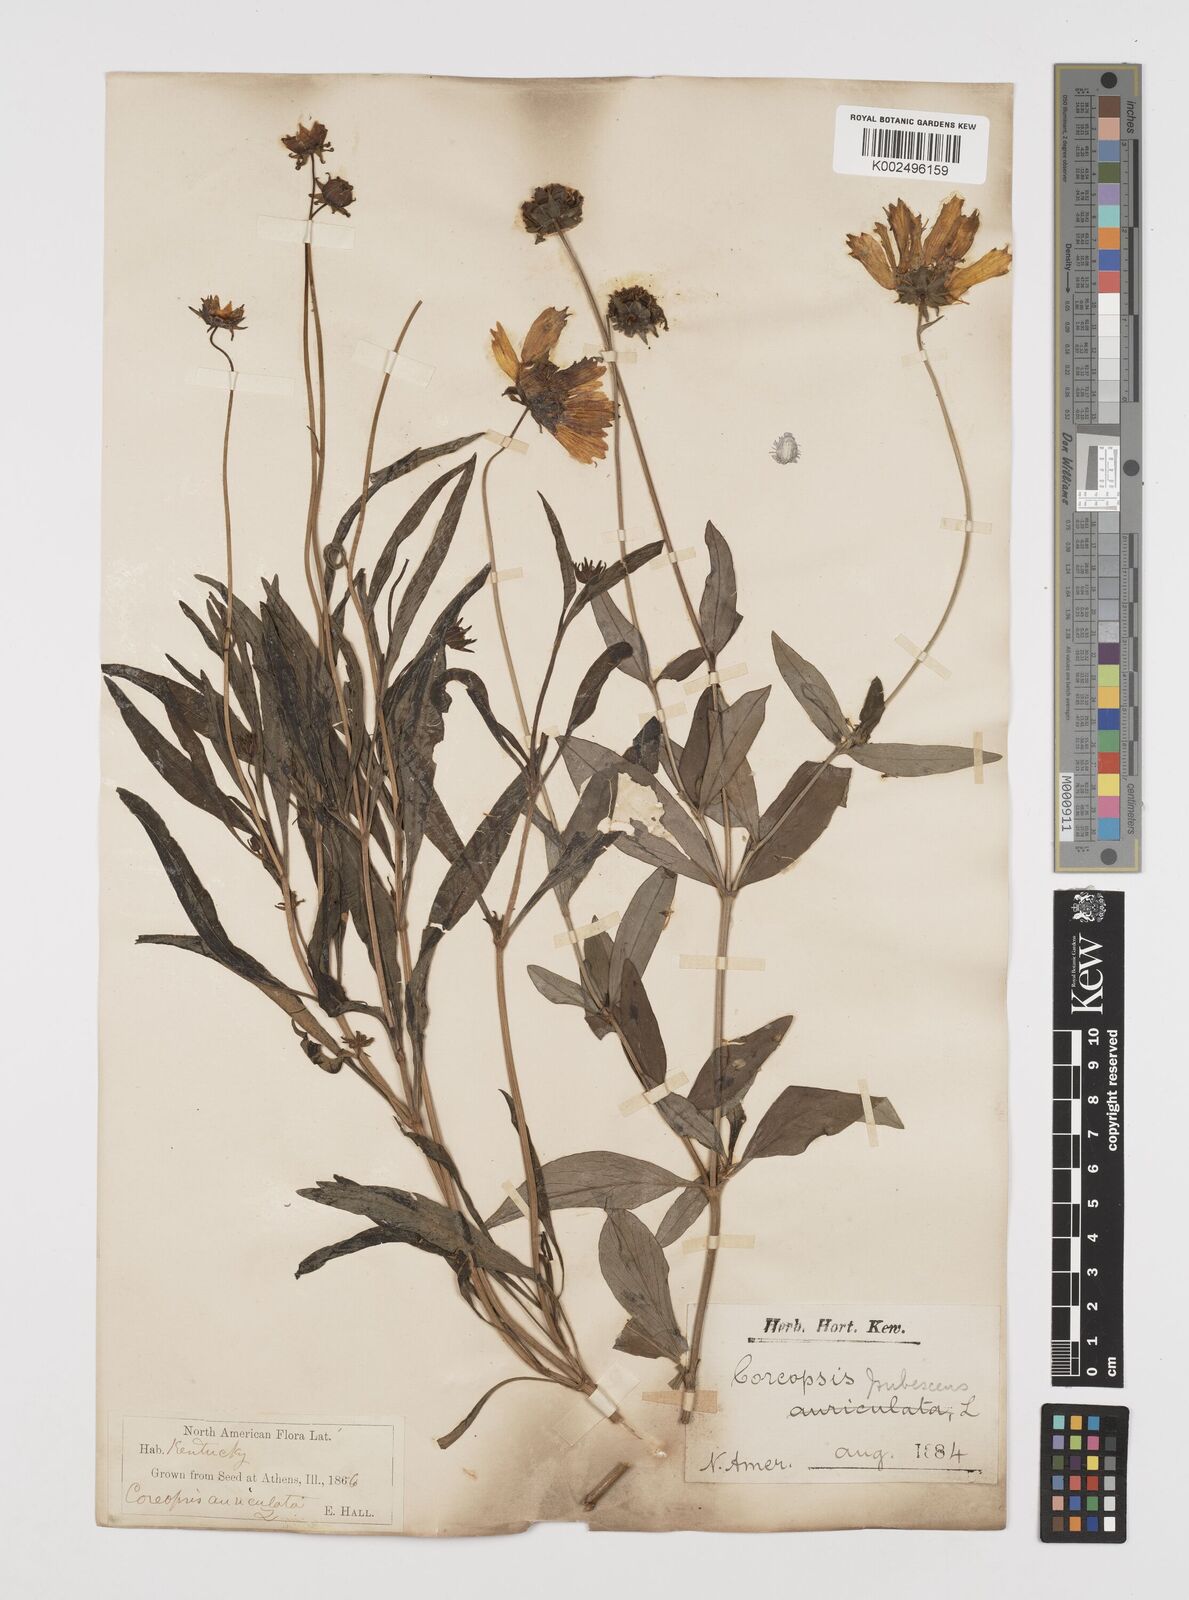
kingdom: Plantae
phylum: Tracheophyta
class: Magnoliopsida
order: Asterales
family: Asteraceae
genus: Coreopsis
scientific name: Coreopsis pubescens
